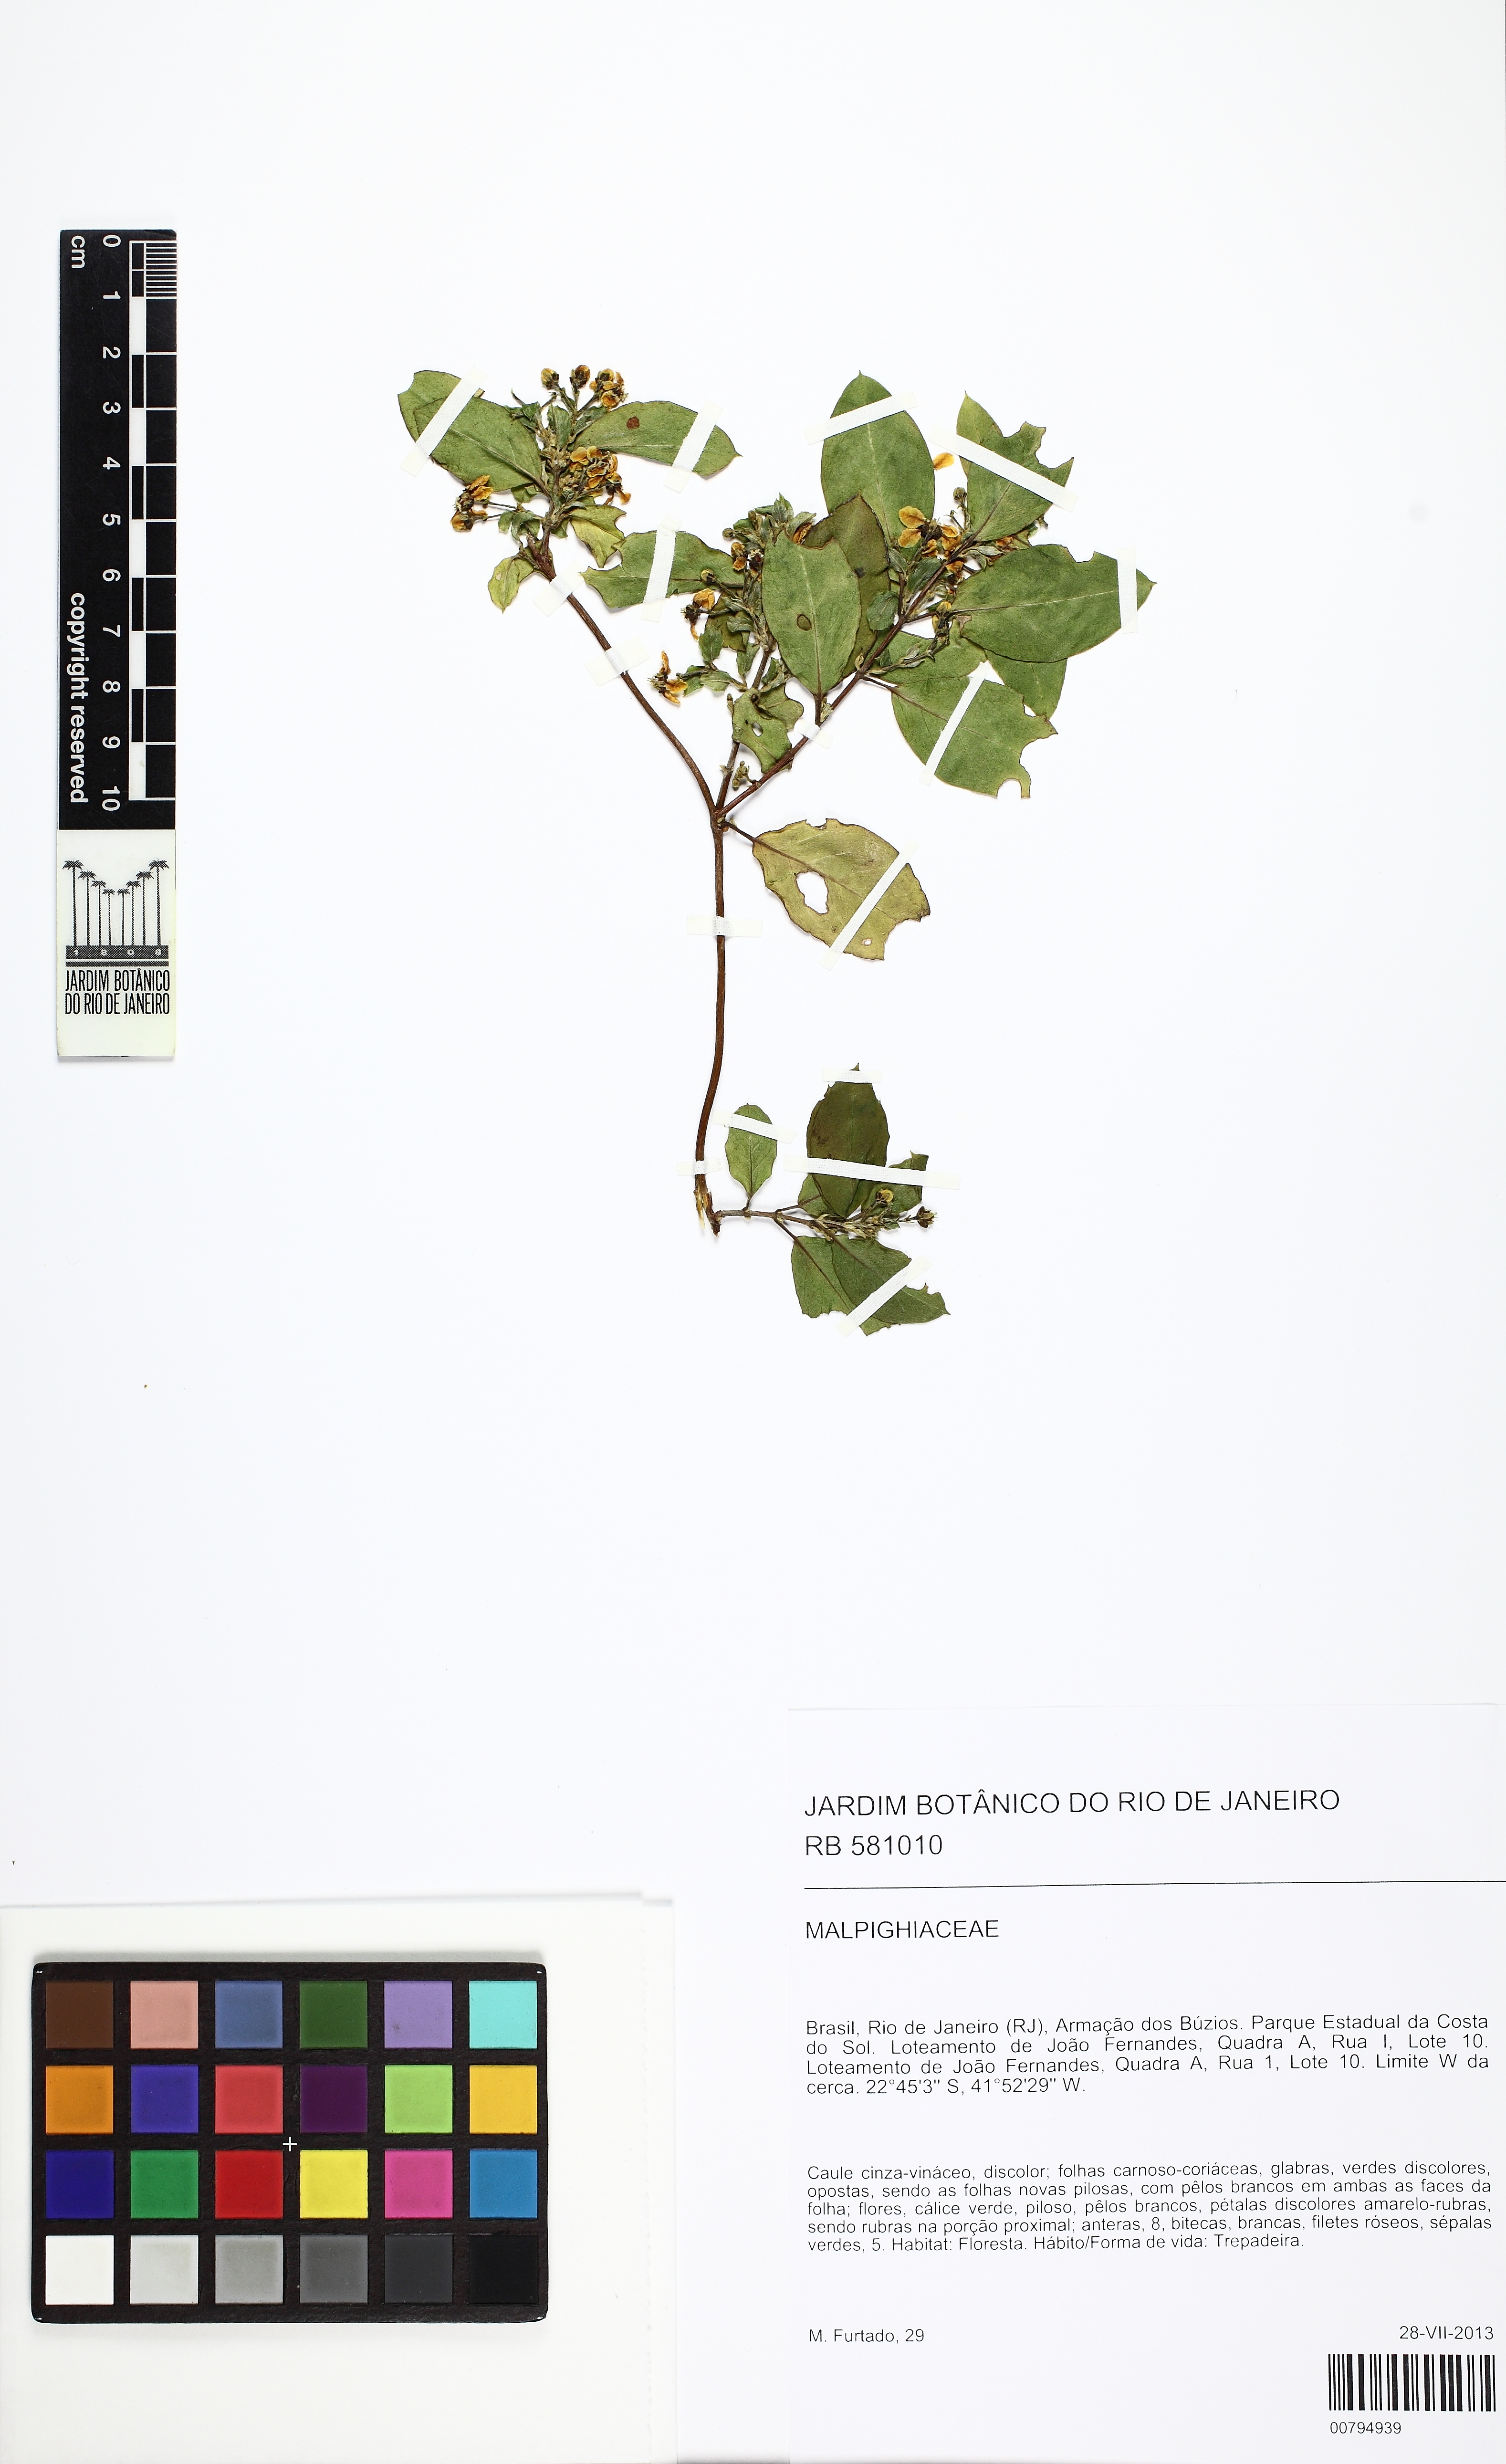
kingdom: Plantae
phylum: Tracheophyta
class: Magnoliopsida
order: Malpighiales
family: Malpighiaceae
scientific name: Malpighiaceae
